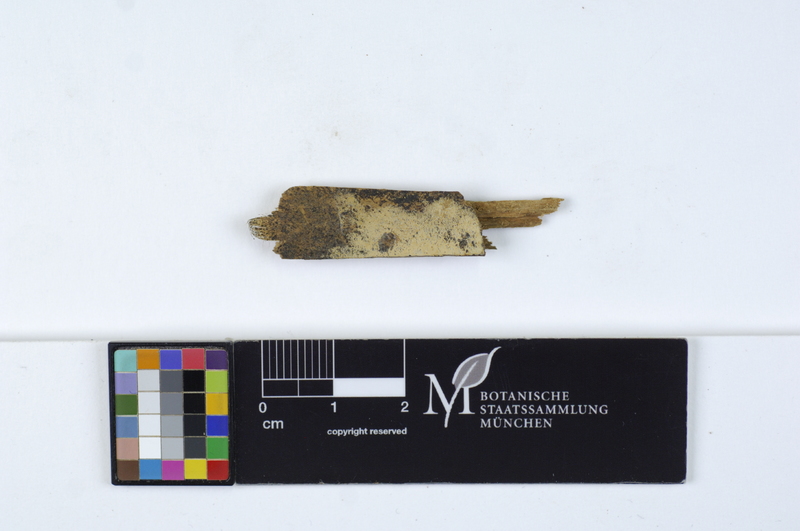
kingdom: Plantae
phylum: Tracheophyta
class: Pinopsida
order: Pinales
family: Pinaceae
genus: Pinus
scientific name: Pinus
